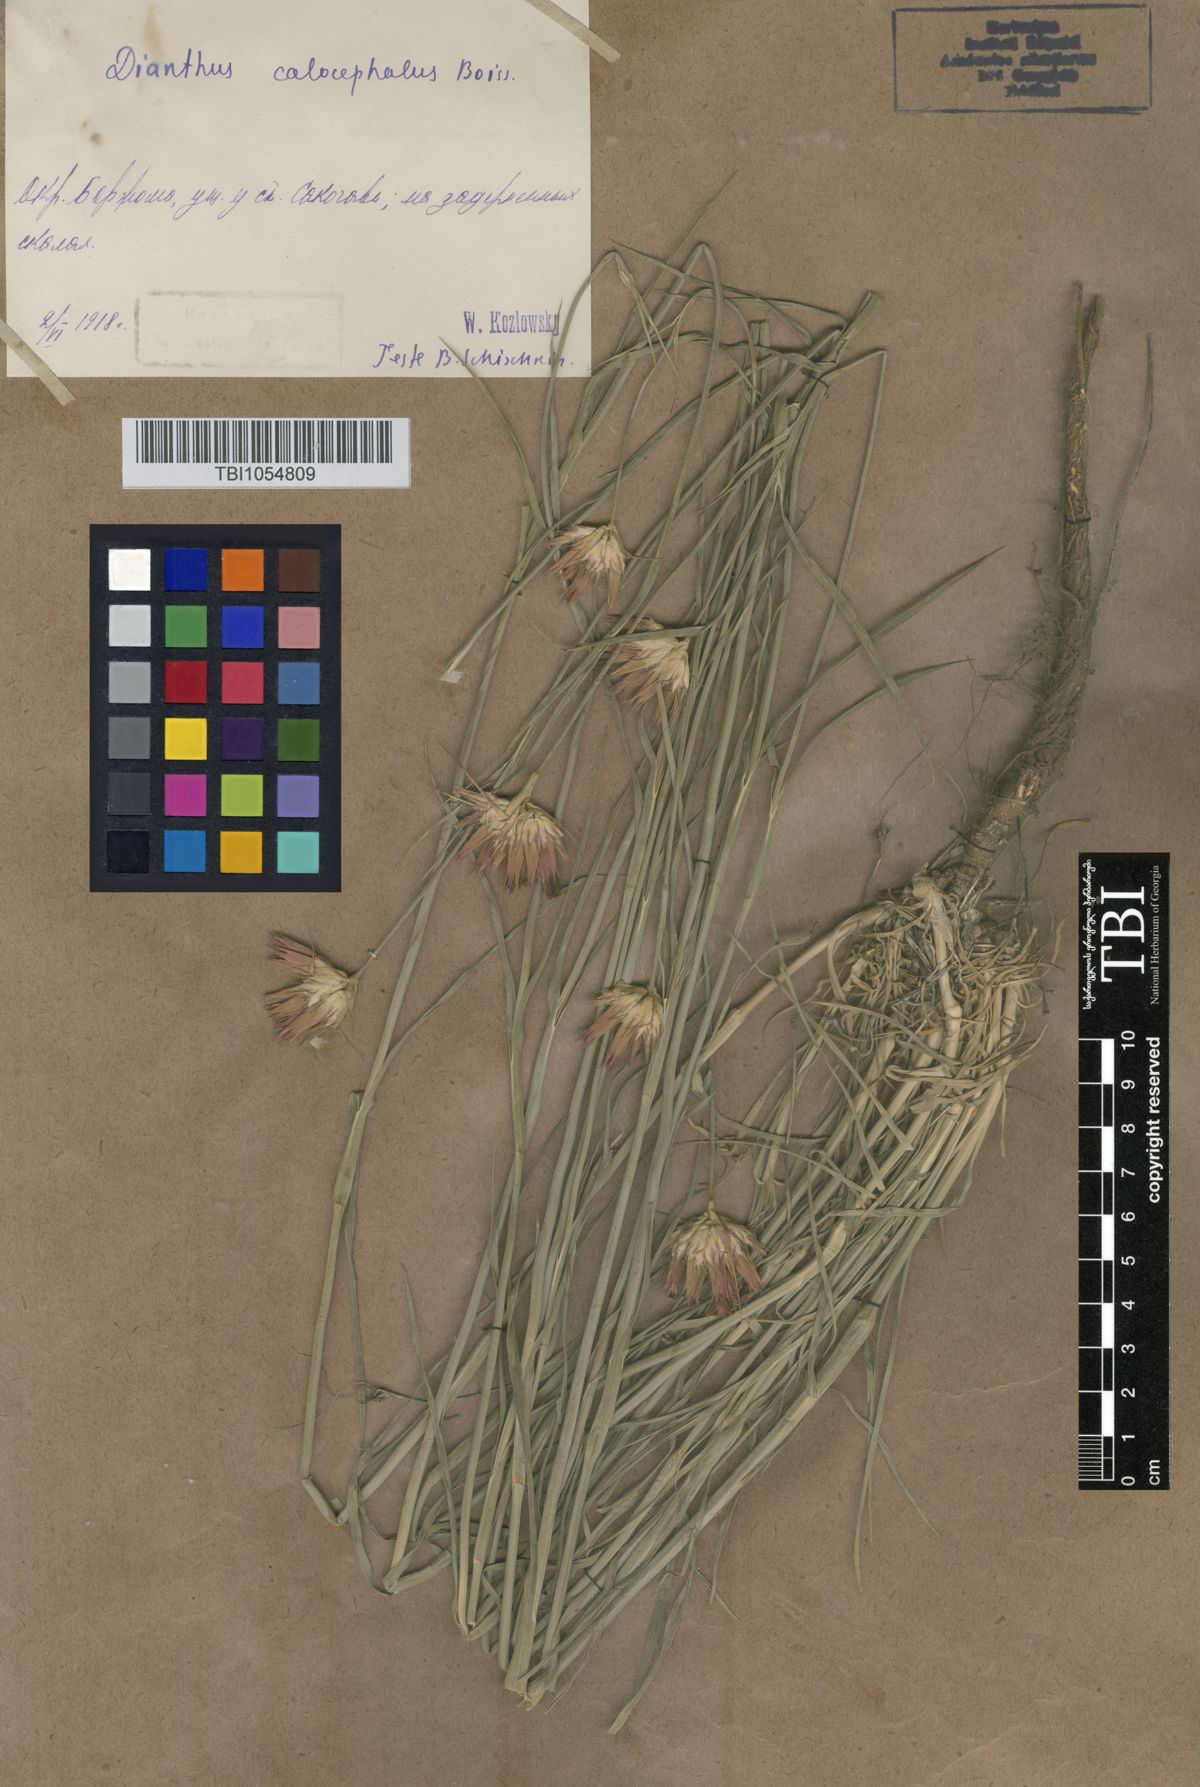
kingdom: Plantae
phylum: Tracheophyta
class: Magnoliopsida
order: Caryophyllales
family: Caryophyllaceae
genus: Dianthus
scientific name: Dianthus cruentus
